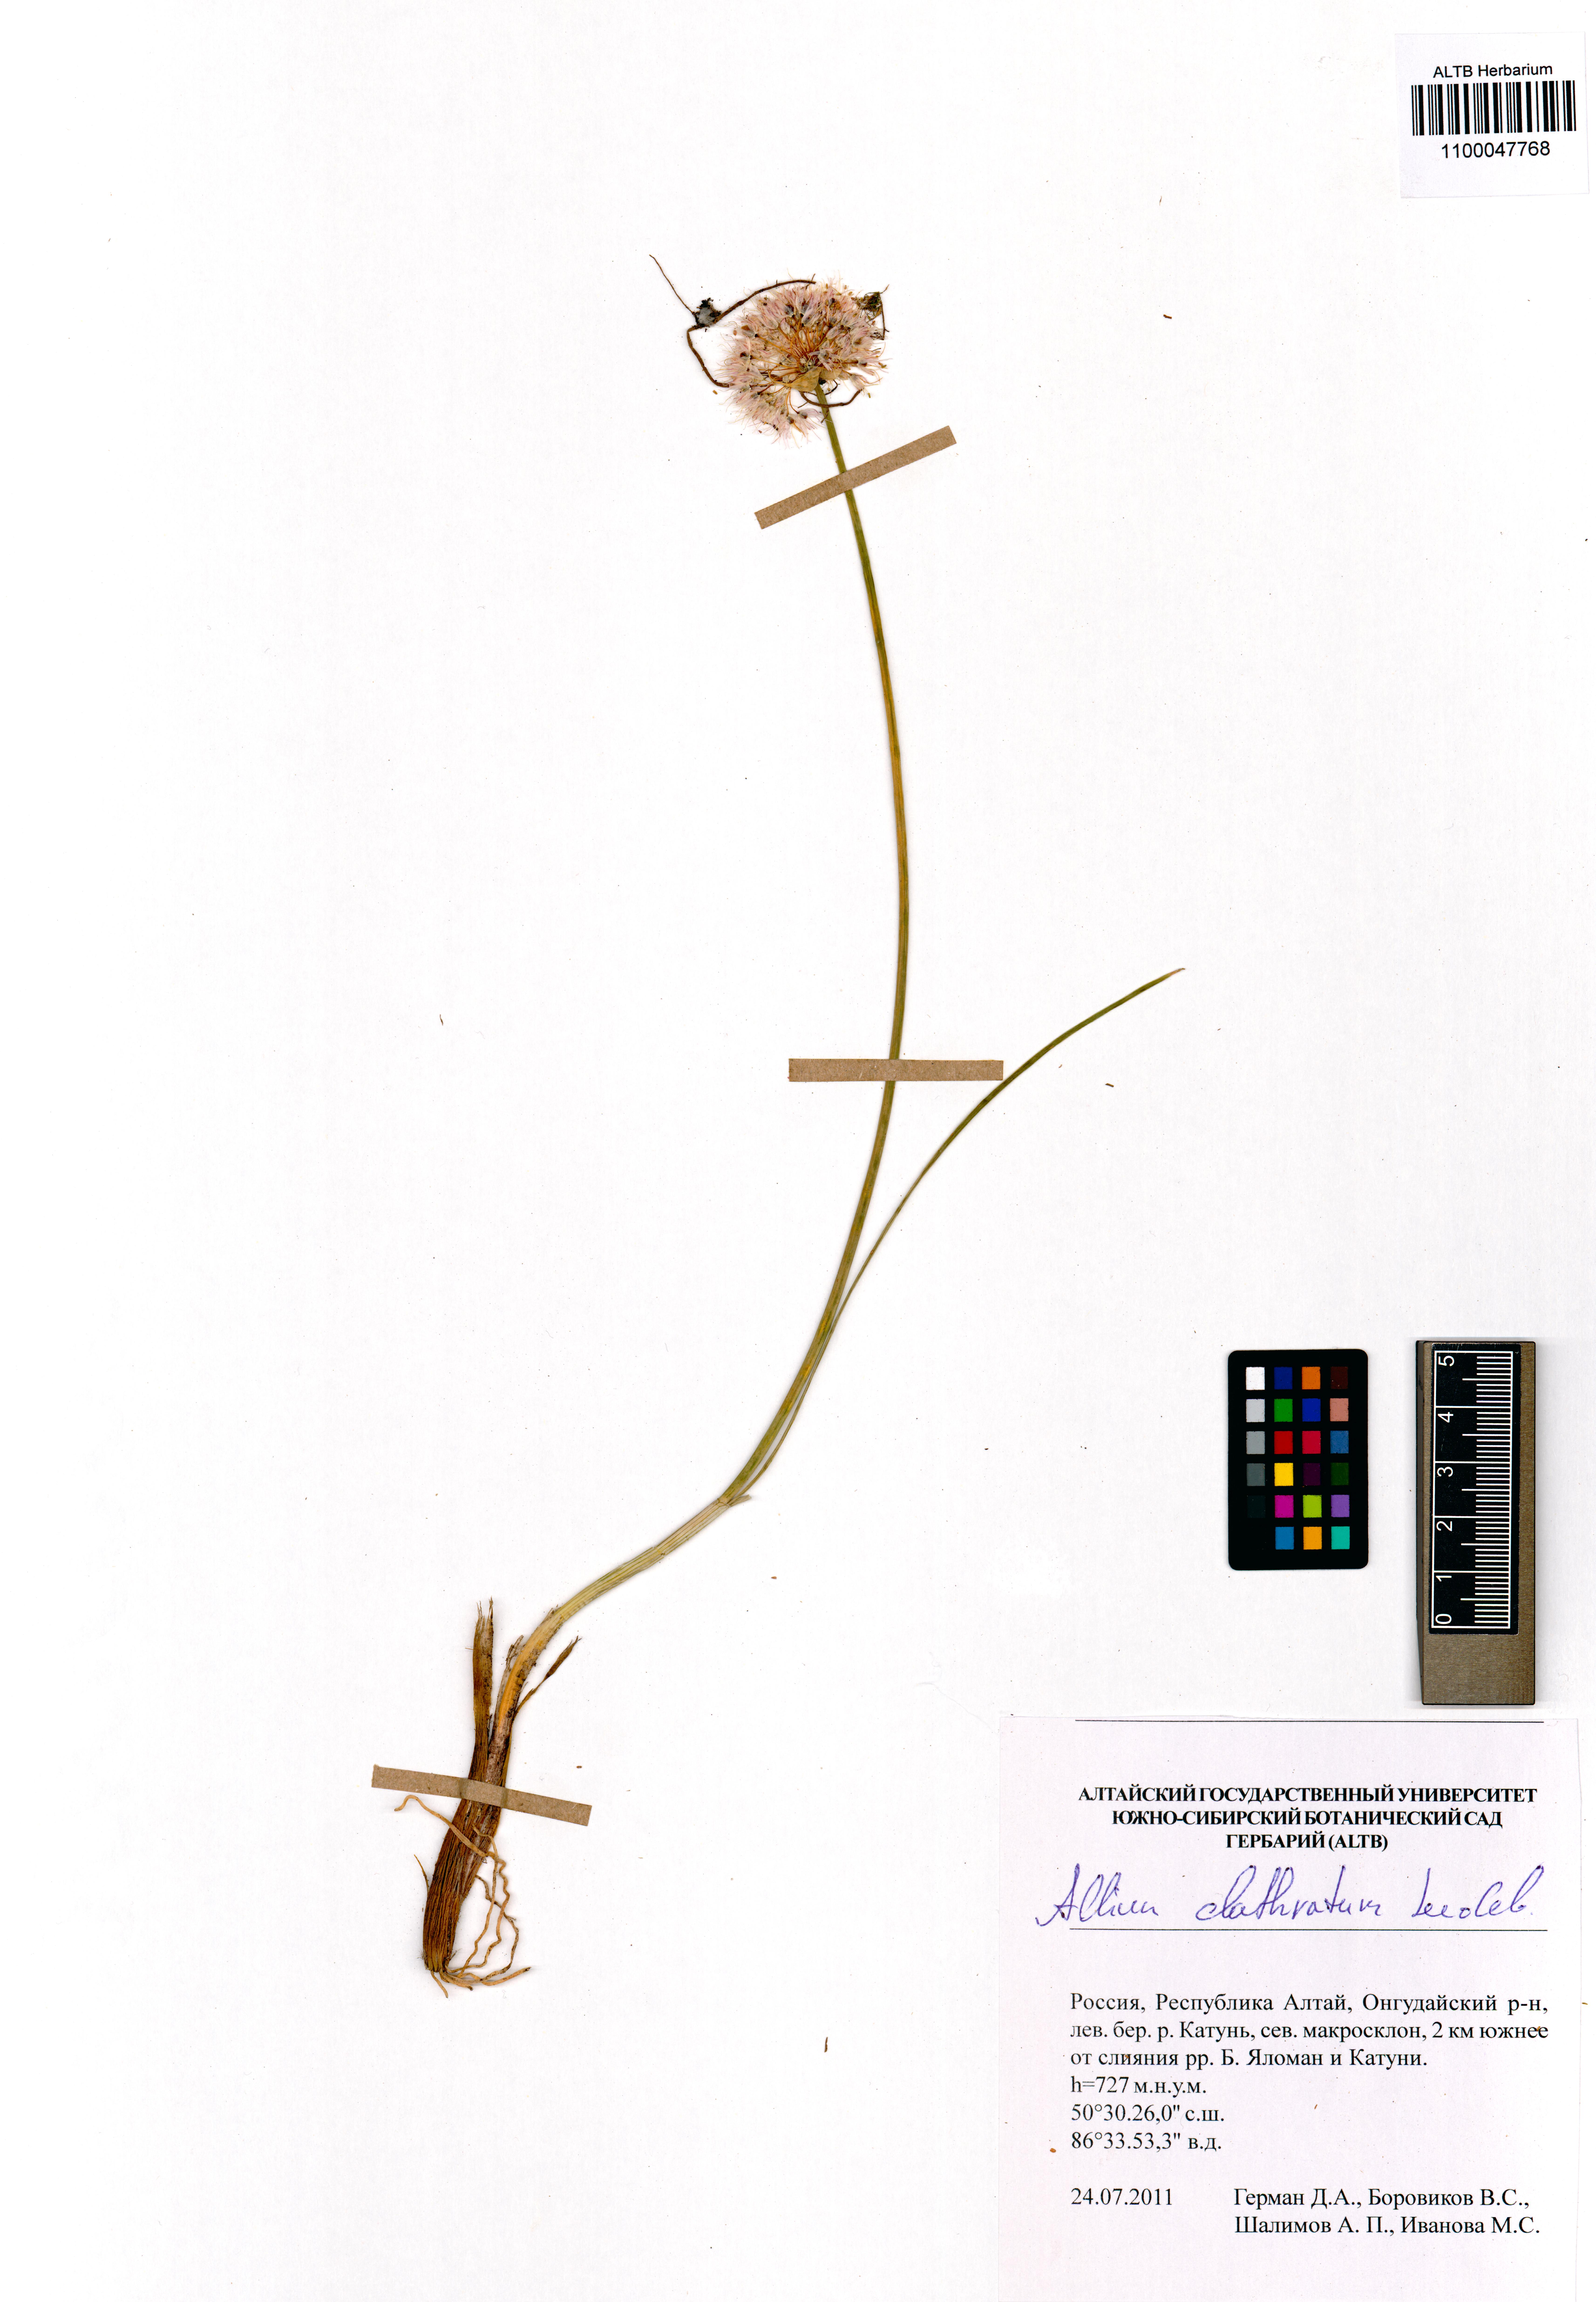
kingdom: Plantae
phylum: Tracheophyta
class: Liliopsida
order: Asparagales
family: Amaryllidaceae
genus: Allium
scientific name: Allium clathratum
